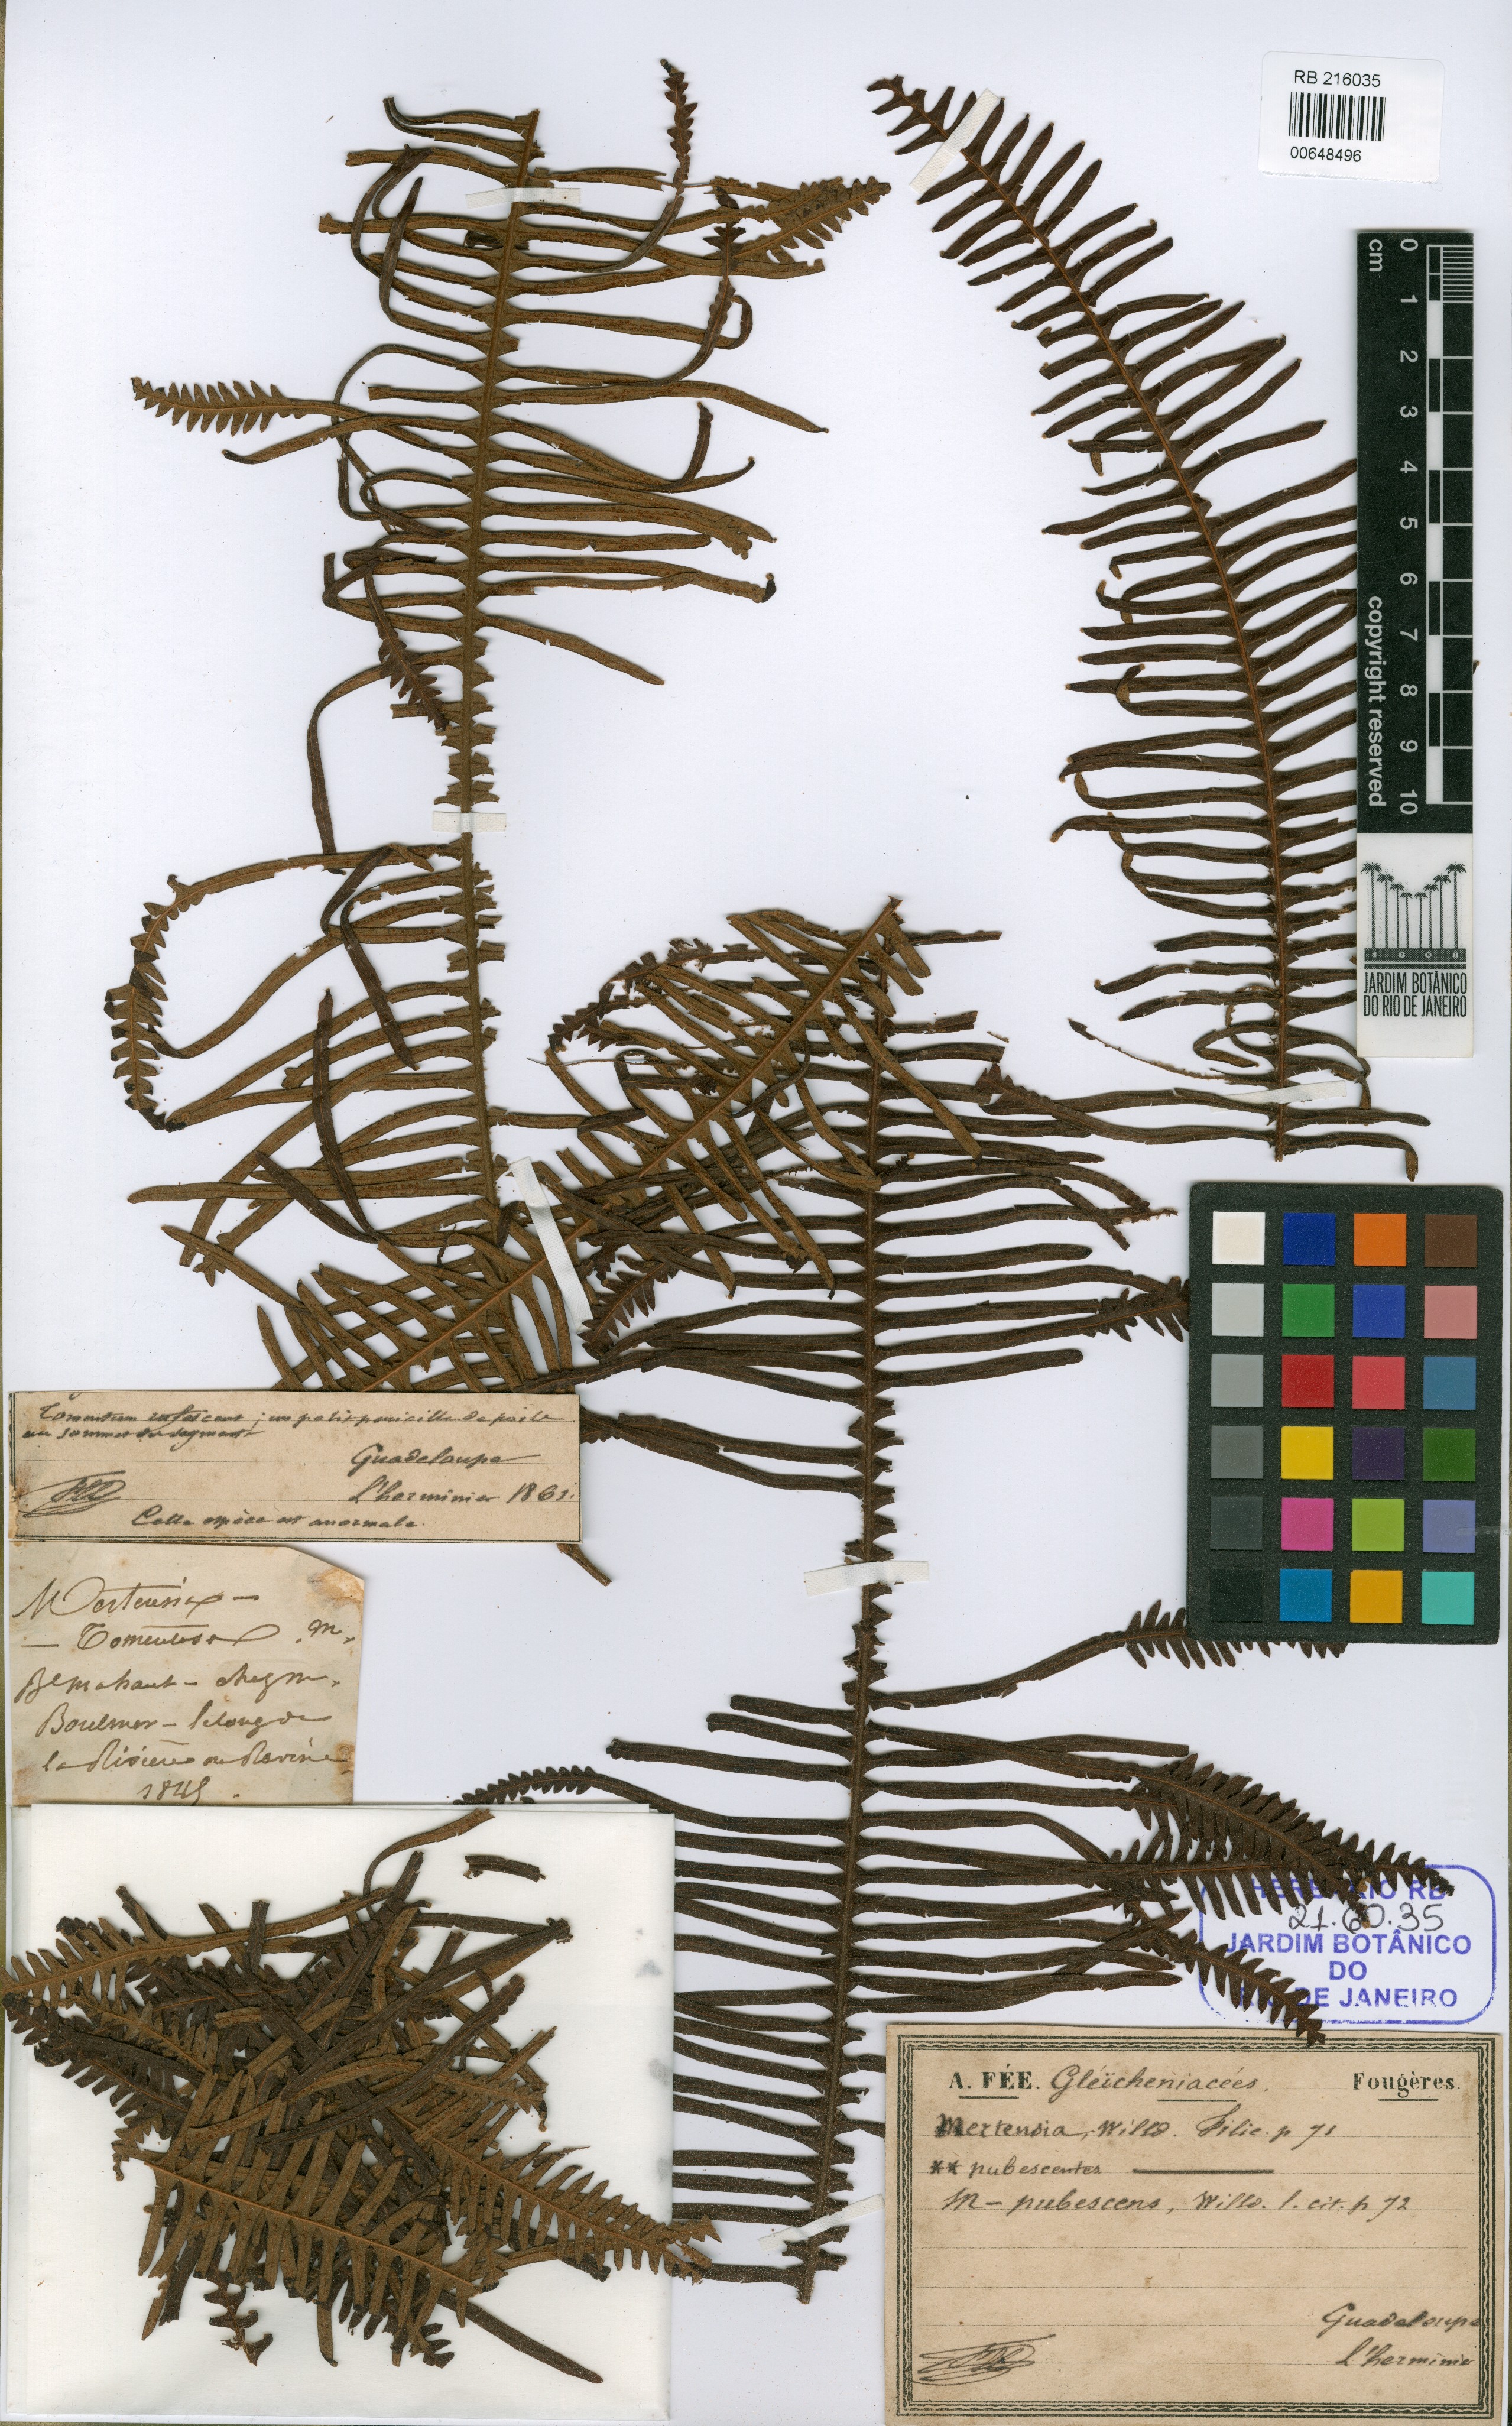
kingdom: Plantae
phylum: Tracheophyta
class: Polypodiopsida
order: Gleicheniales
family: Gleicheniaceae
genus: Sticherus
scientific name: Sticherus
